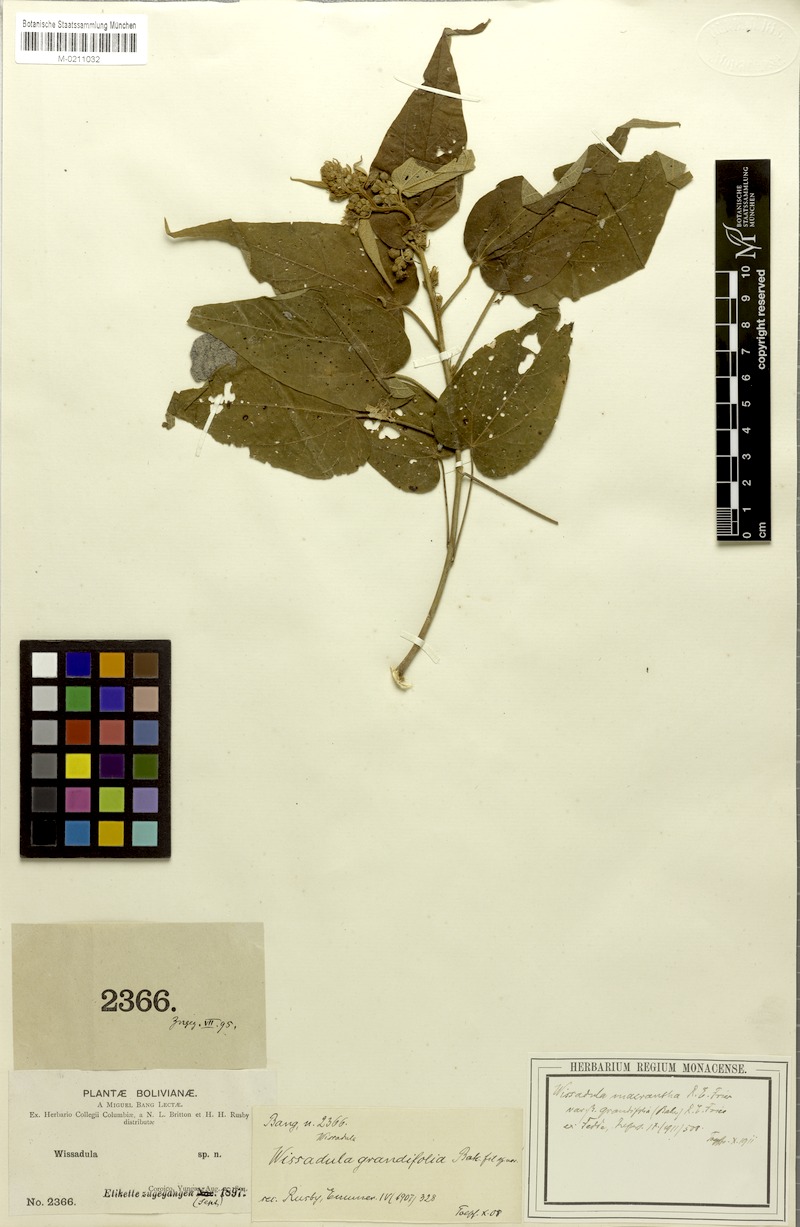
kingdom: Plantae
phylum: Tracheophyta
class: Magnoliopsida
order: Malvales
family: Malvaceae
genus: Wissadula
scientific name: Wissadula grandifolia
